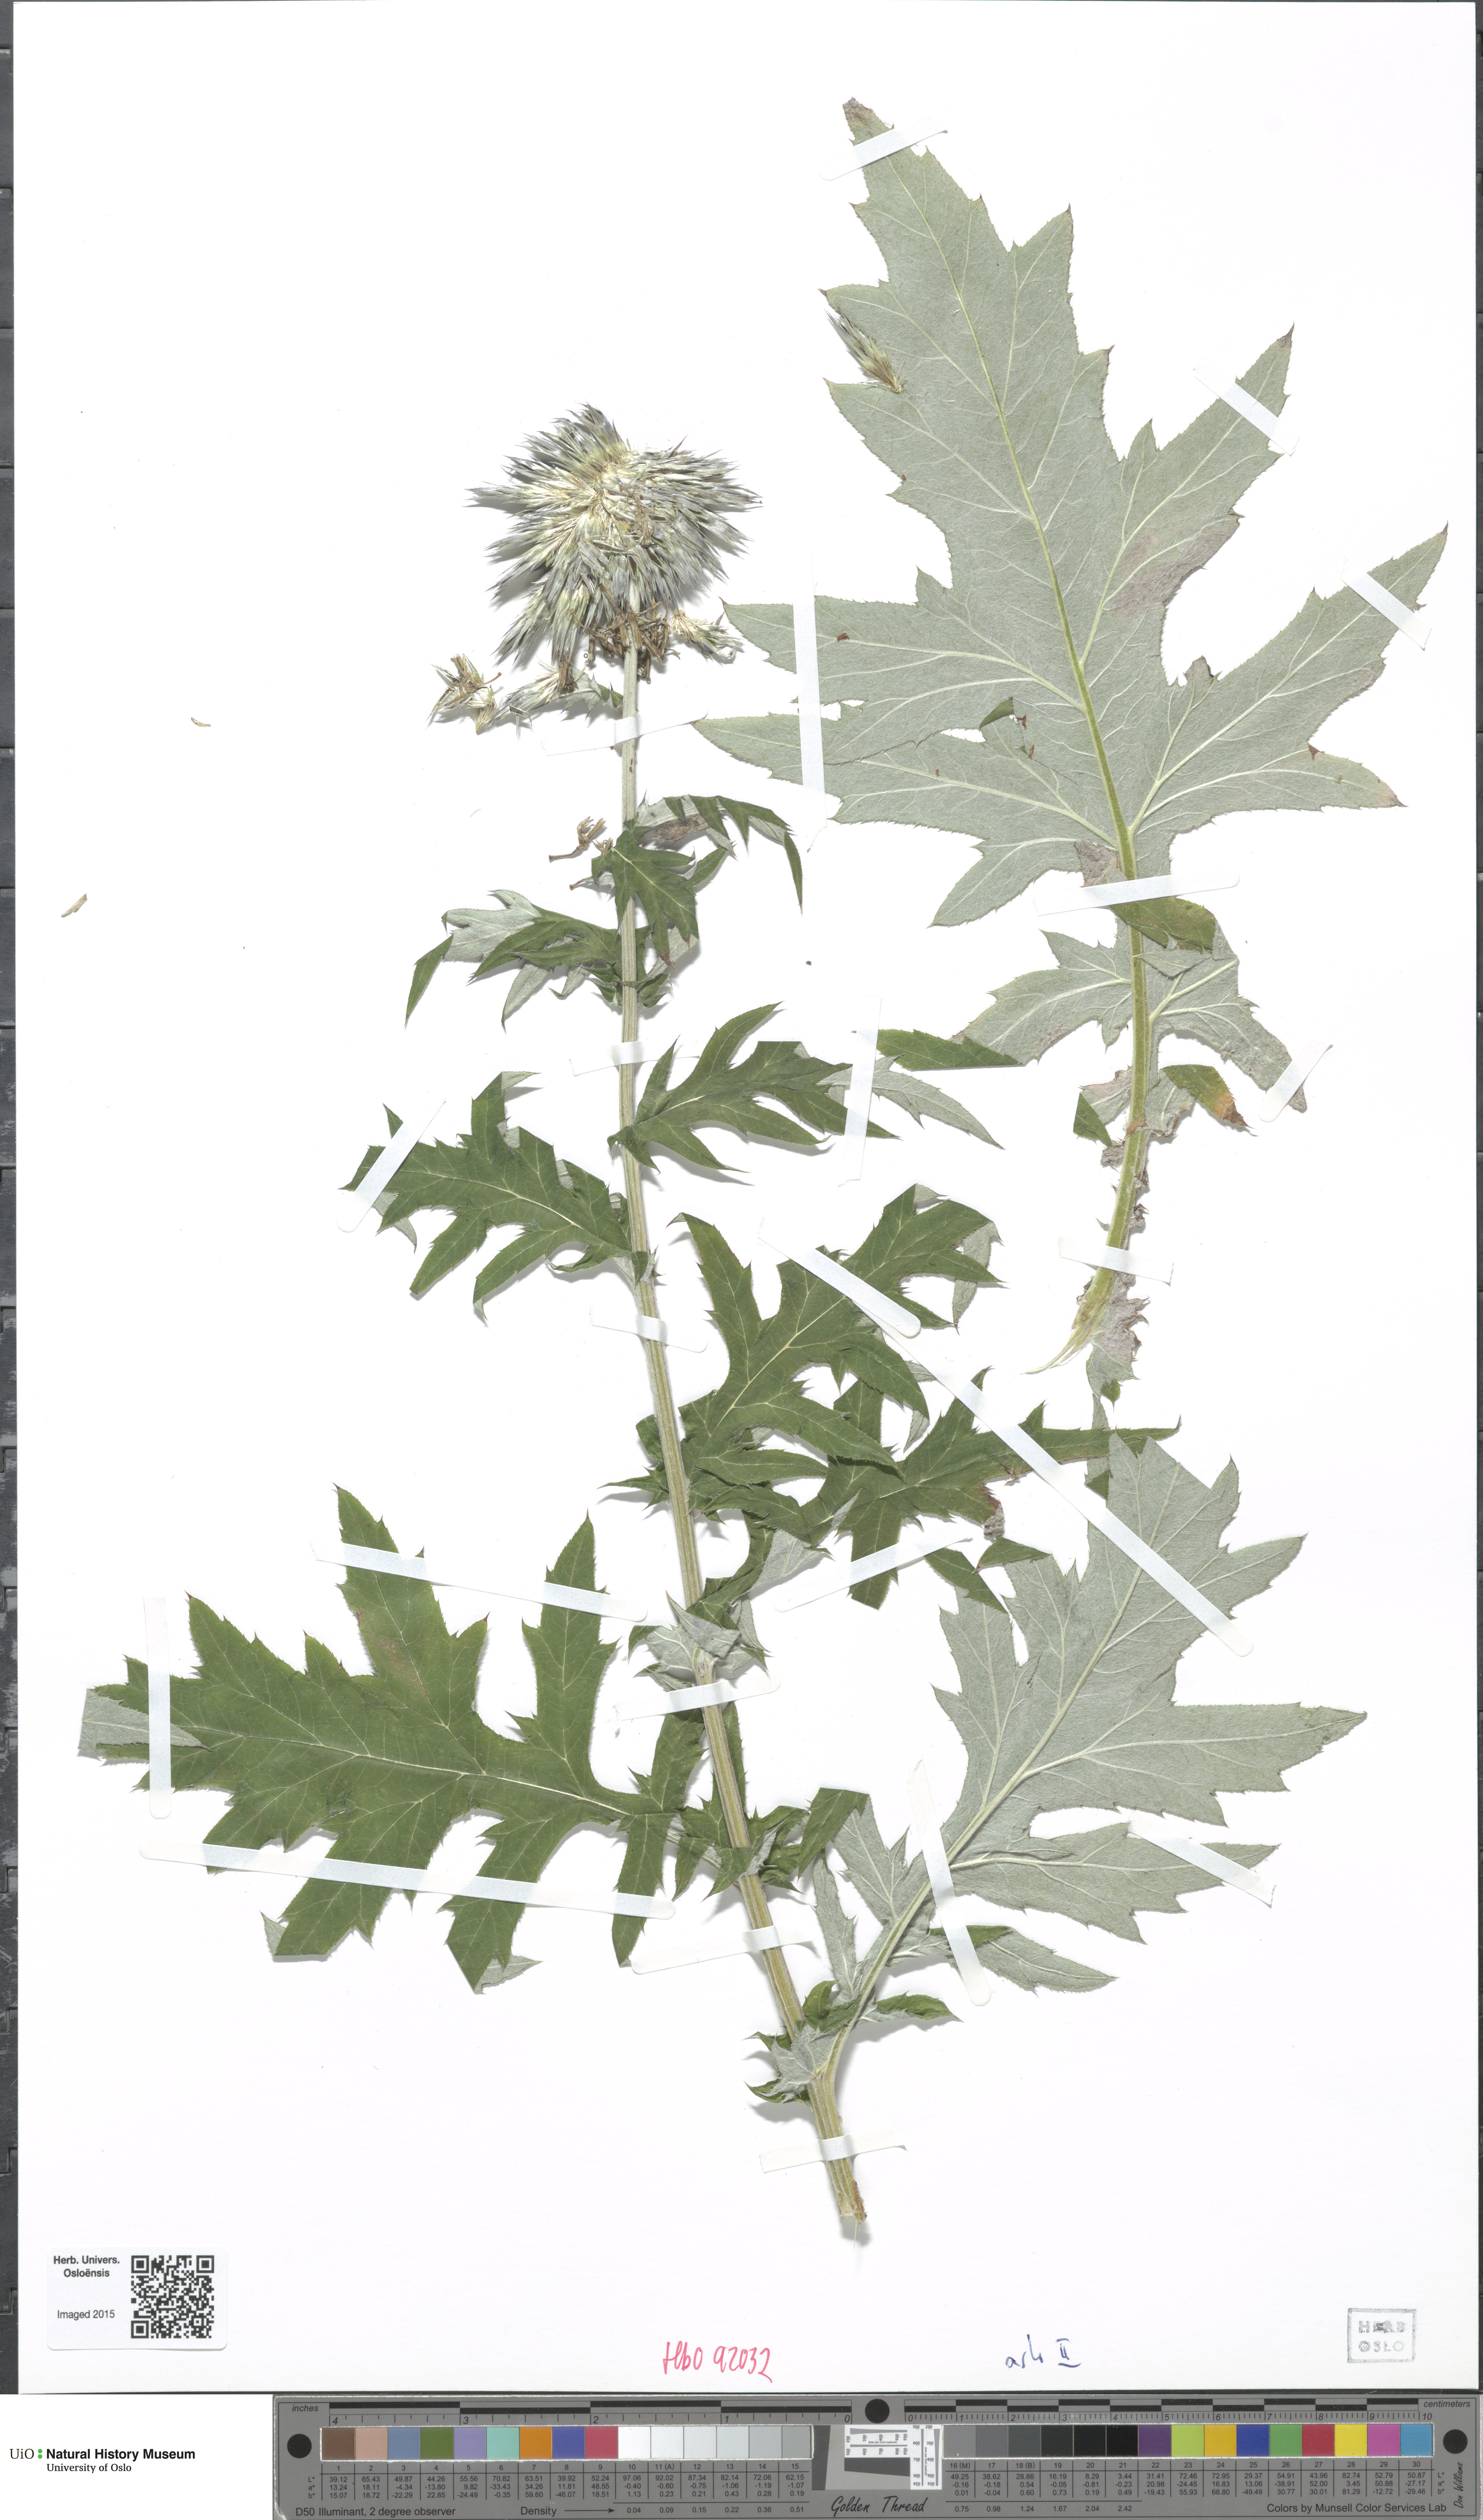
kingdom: Plantae
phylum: Tracheophyta
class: Magnoliopsida
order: Asterales
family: Asteraceae
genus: Echinops
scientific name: Echinops bannaticus
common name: Blue globe-thistle
